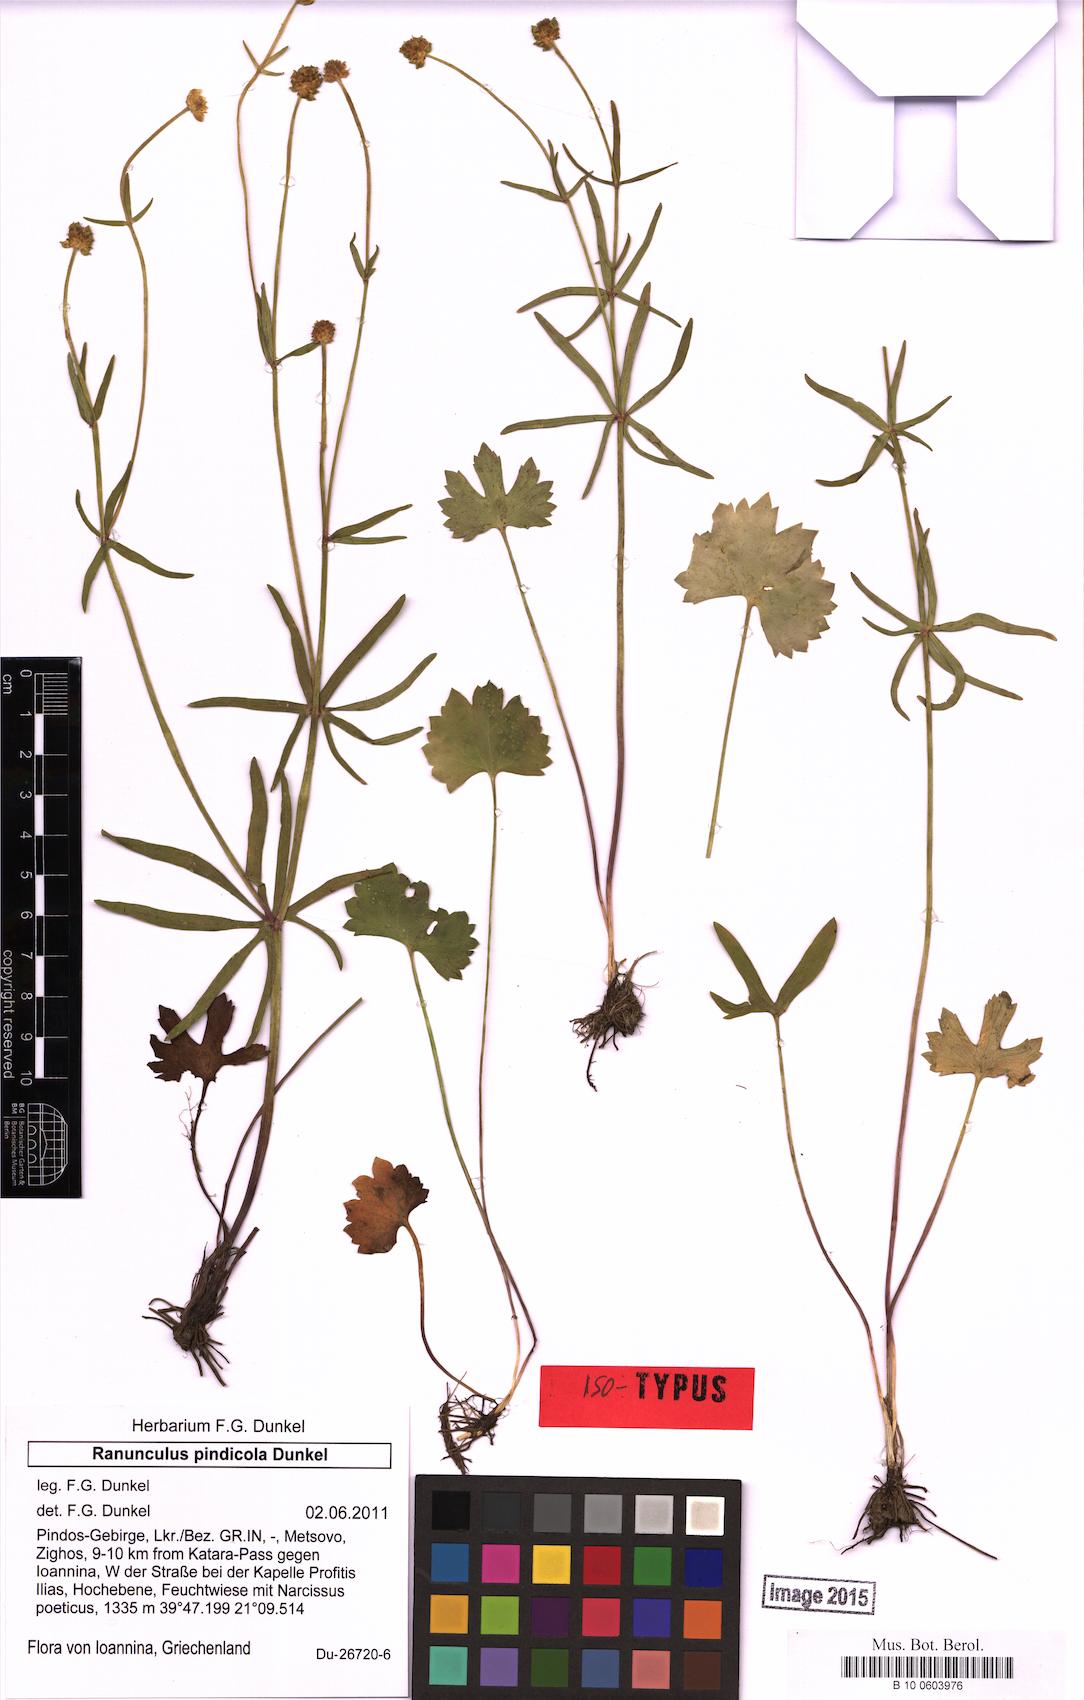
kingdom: Plantae
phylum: Tracheophyta
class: Magnoliopsida
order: Ranunculales
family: Ranunculaceae
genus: Ranunculus
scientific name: Ranunculus pindicola
